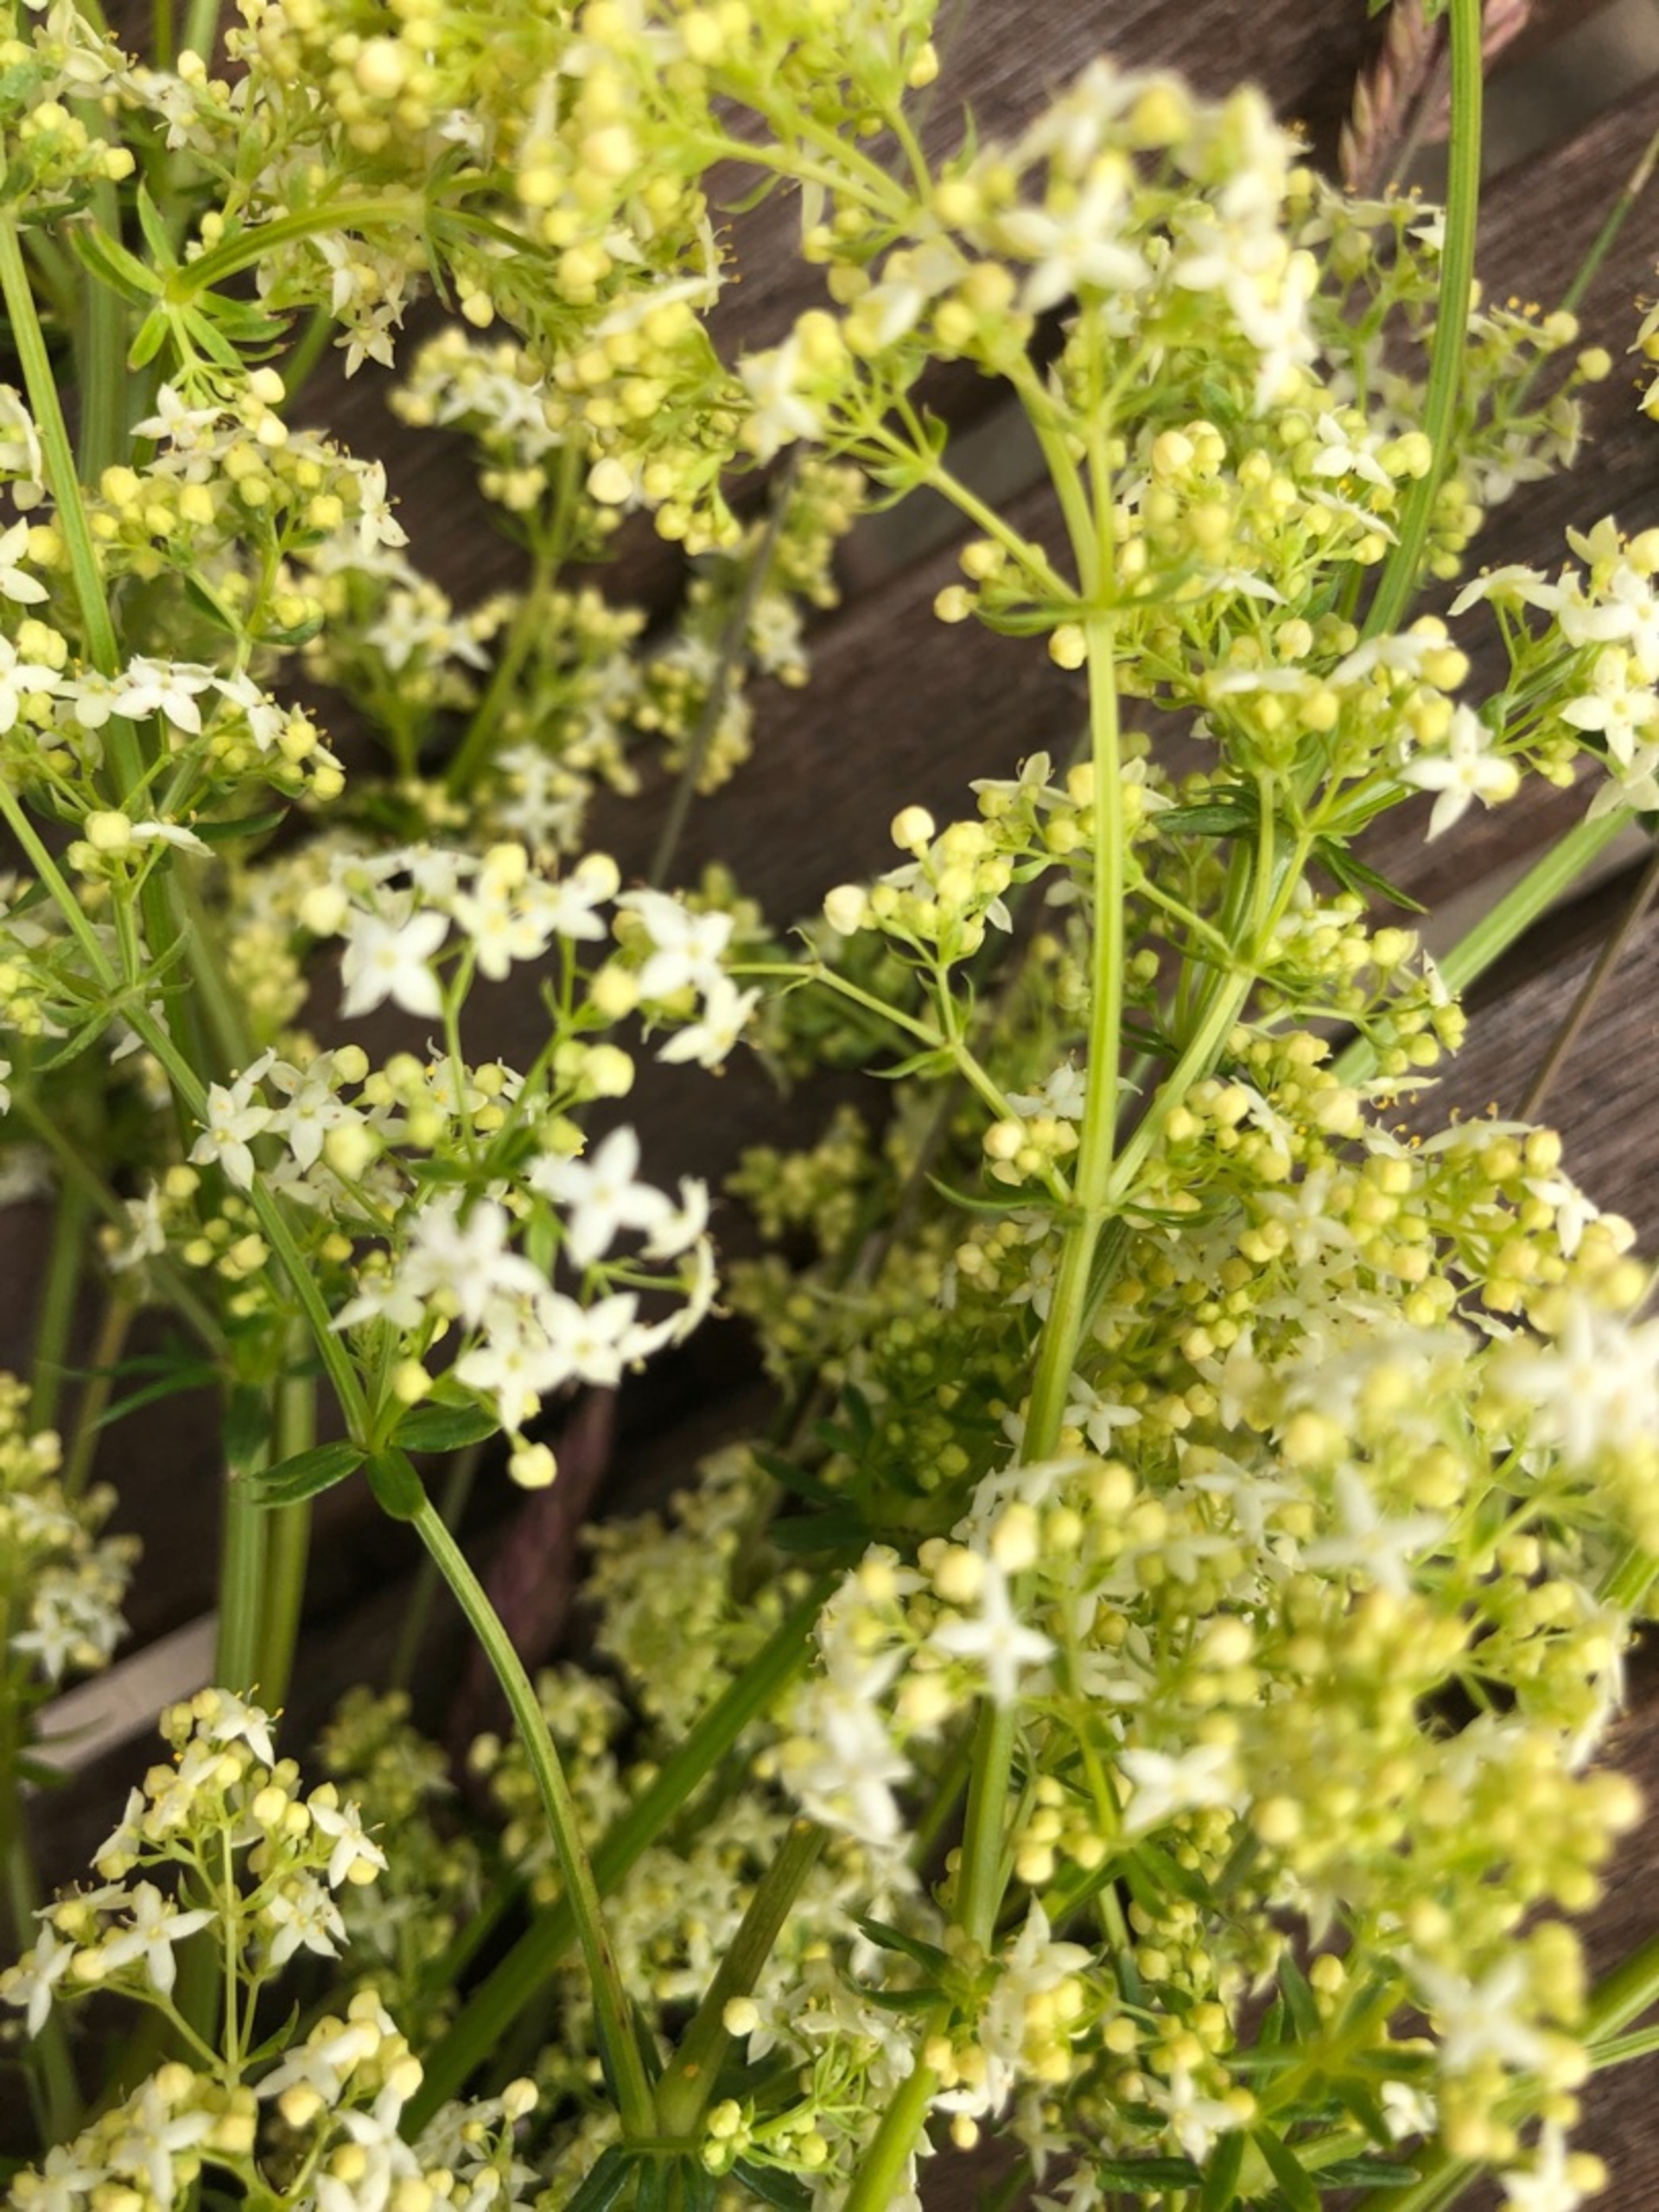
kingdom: Plantae
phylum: Tracheophyta
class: Magnoliopsida
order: Lamiales
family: Lamiaceae
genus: Prunella
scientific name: Prunella vulgaris
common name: Almindelig brunelle
